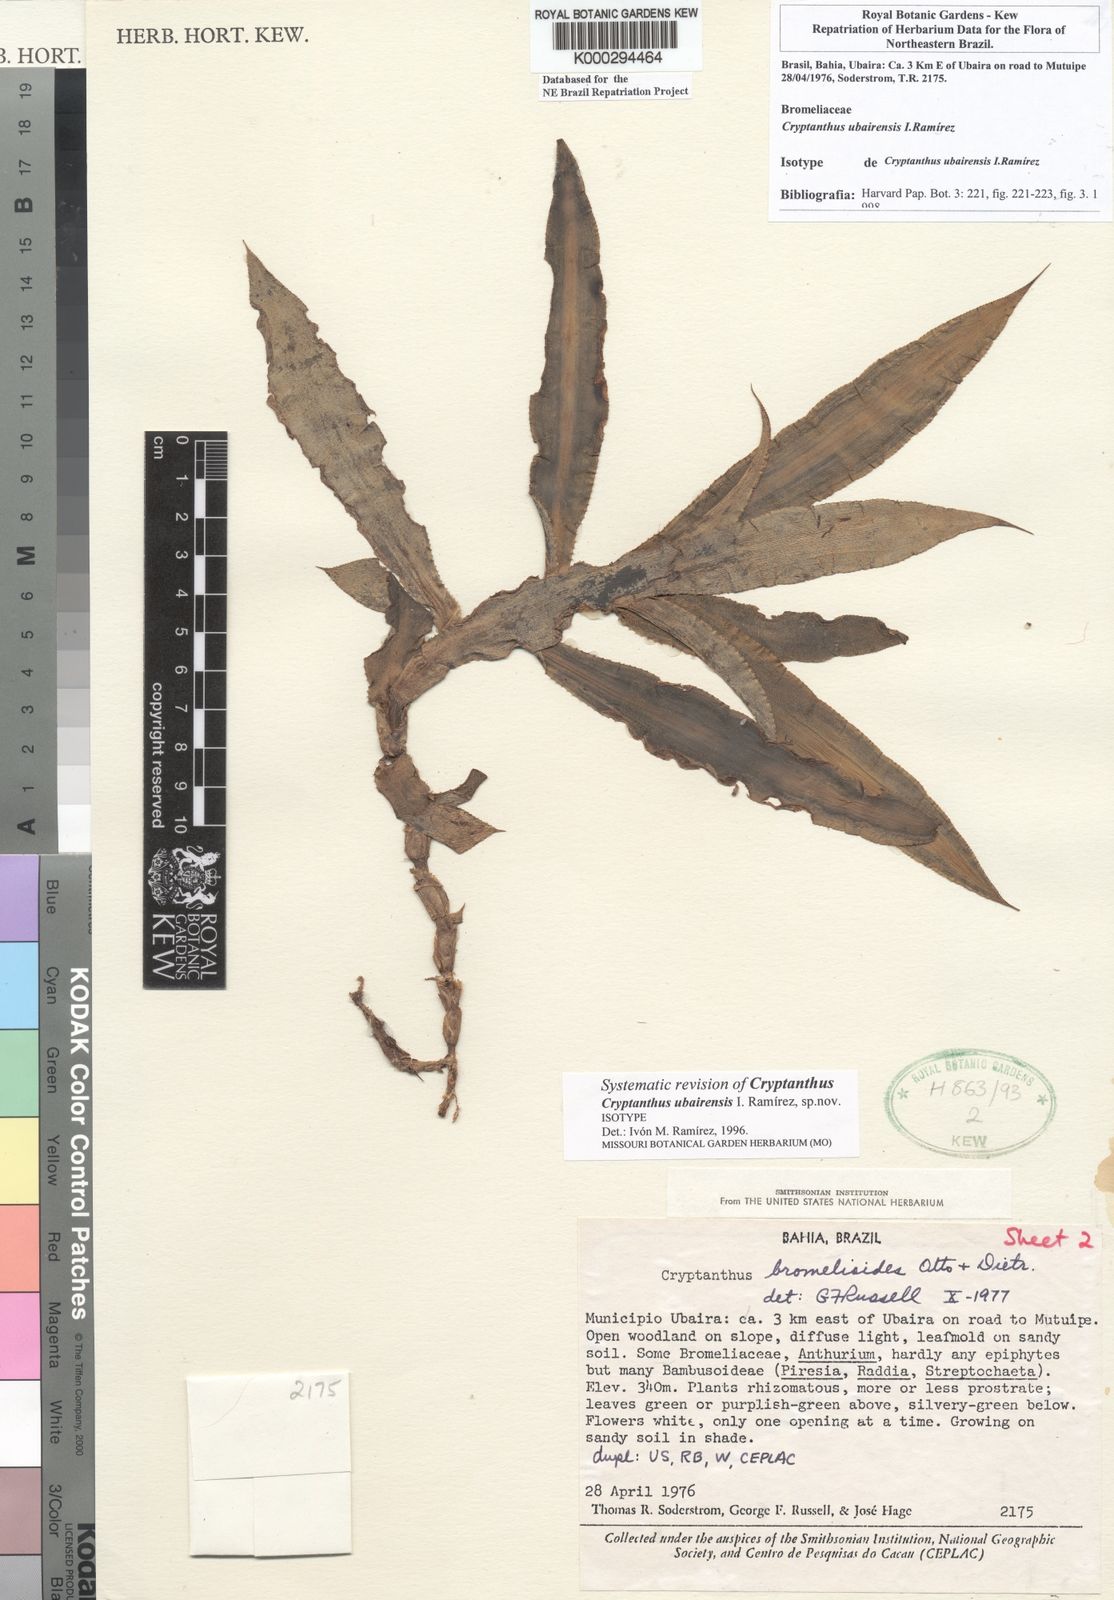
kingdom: Plantae
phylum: Tracheophyta
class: Liliopsida
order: Poales
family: Bromeliaceae
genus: Cryptanthus
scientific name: Cryptanthus
